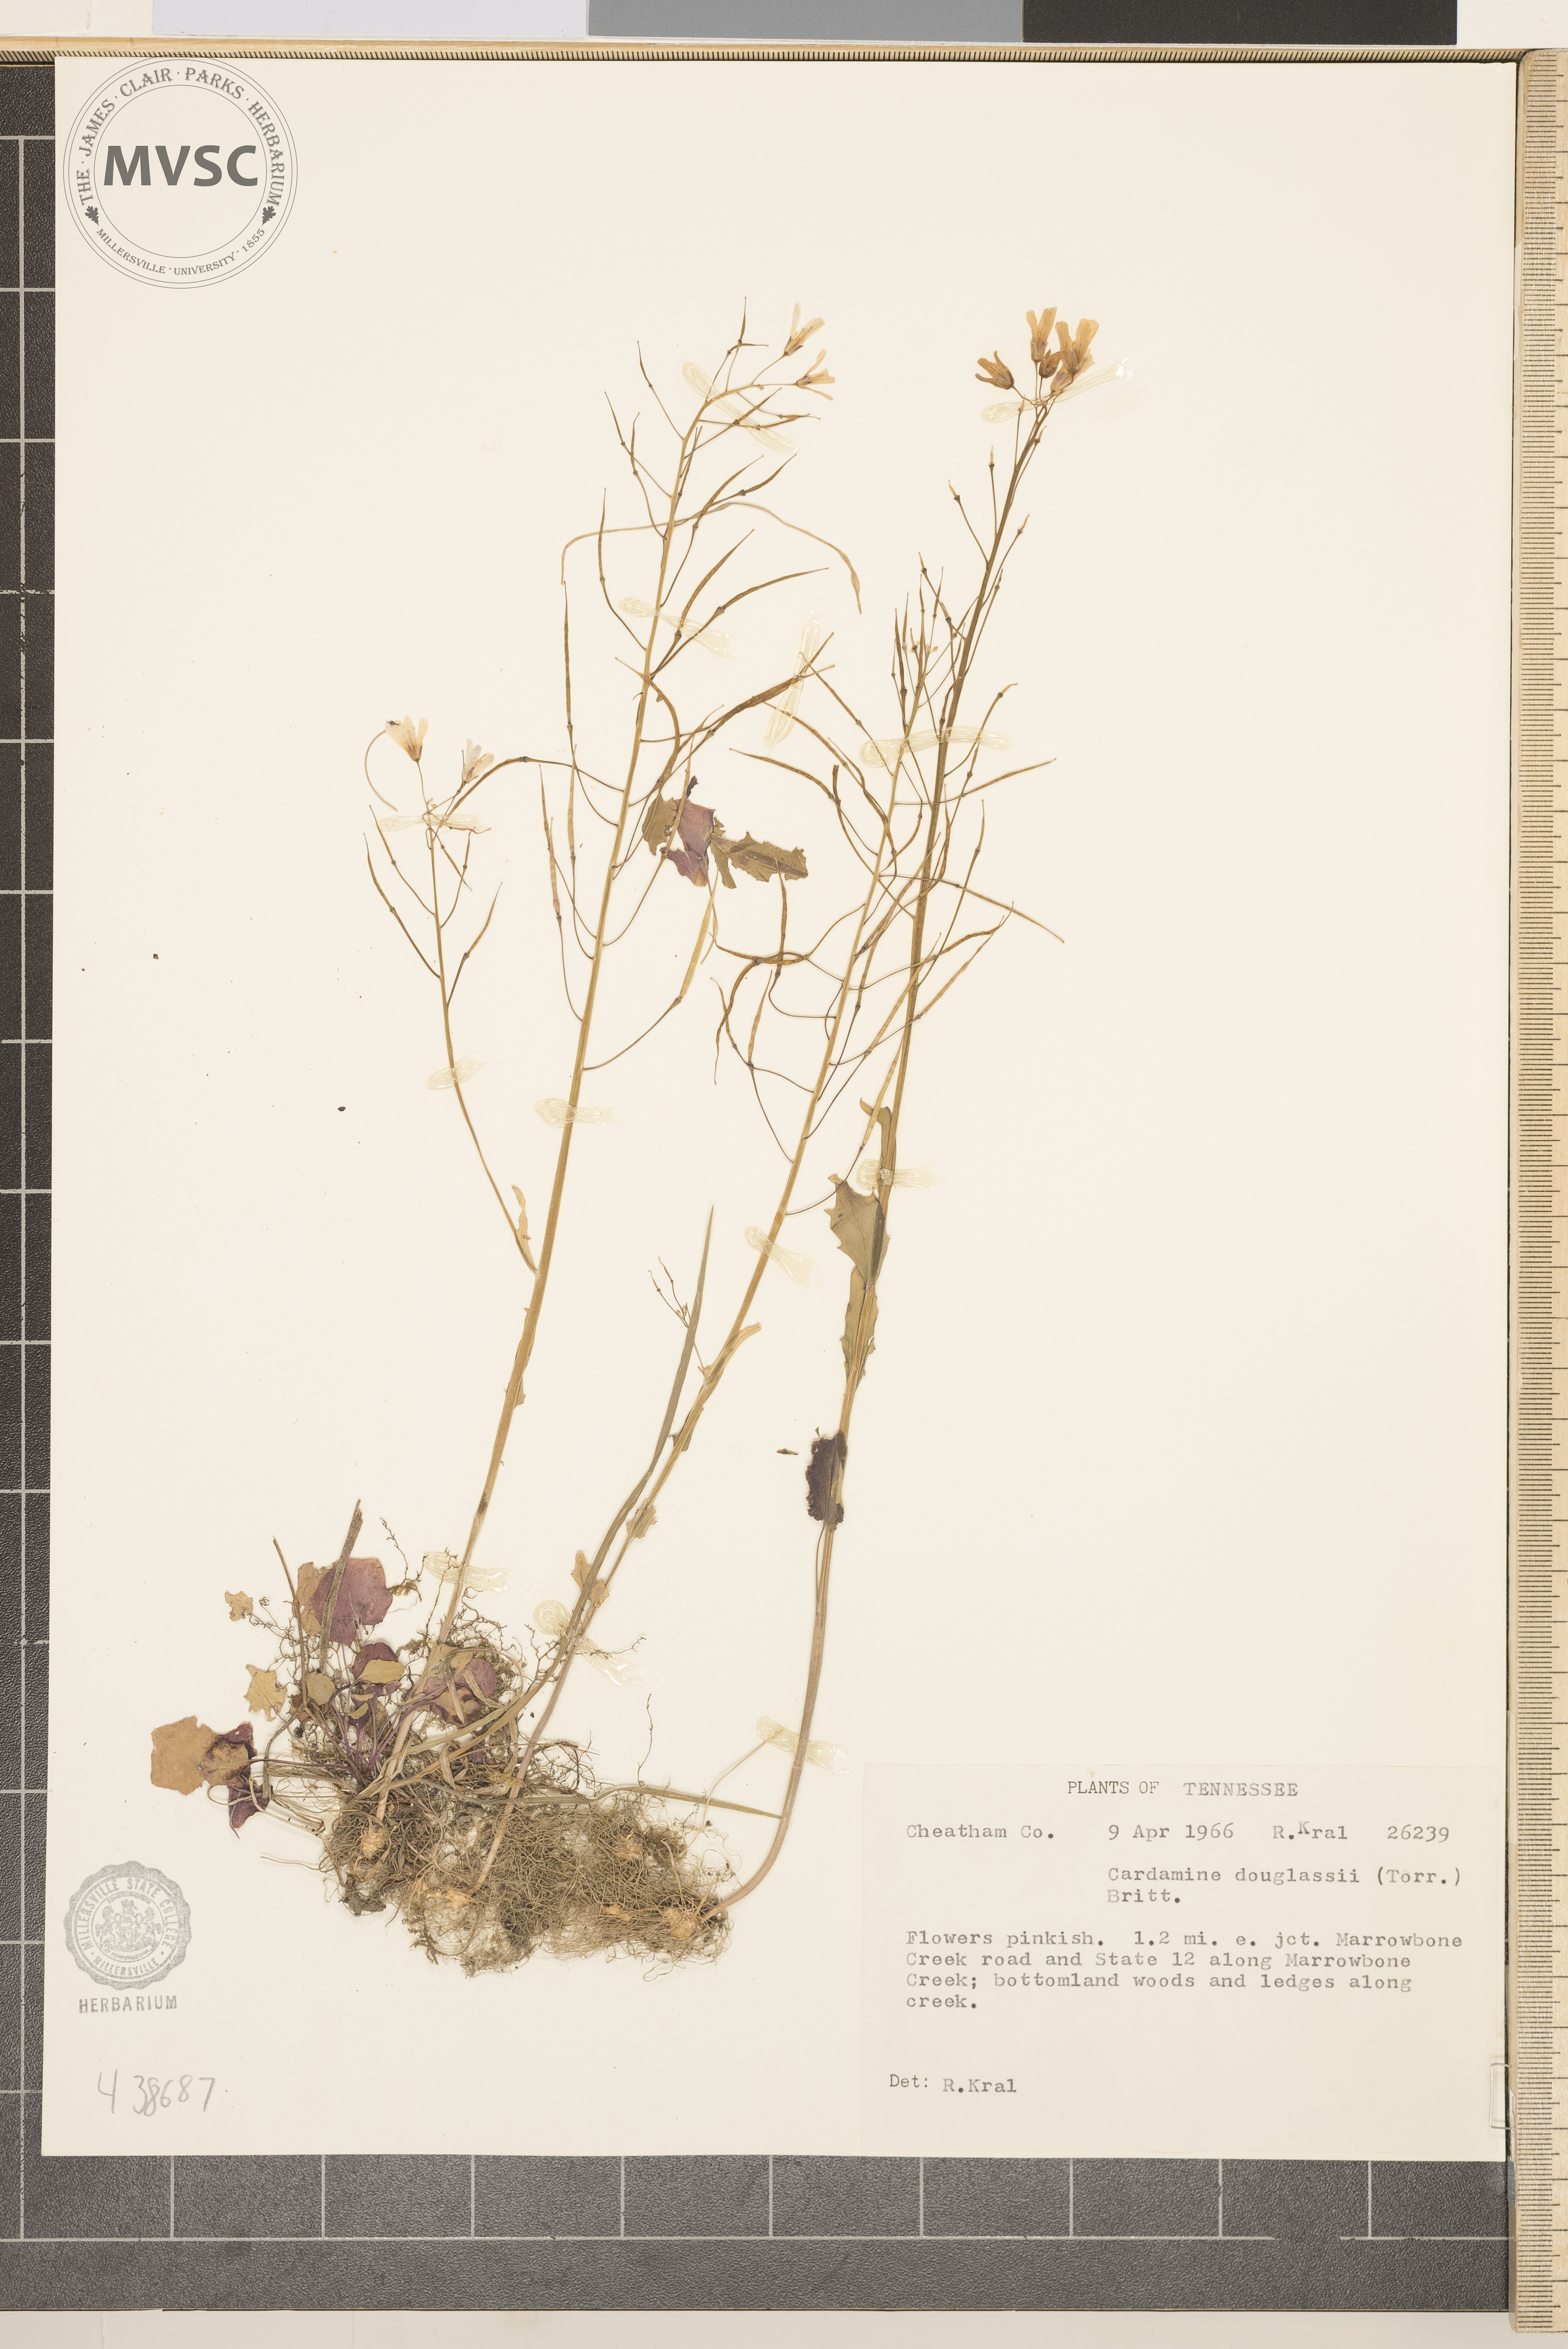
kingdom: Plantae
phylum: Tracheophyta
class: Magnoliopsida
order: Brassicales
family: Brassicaceae
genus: Cardamine
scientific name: Cardamine douglassii
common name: Purple cress
